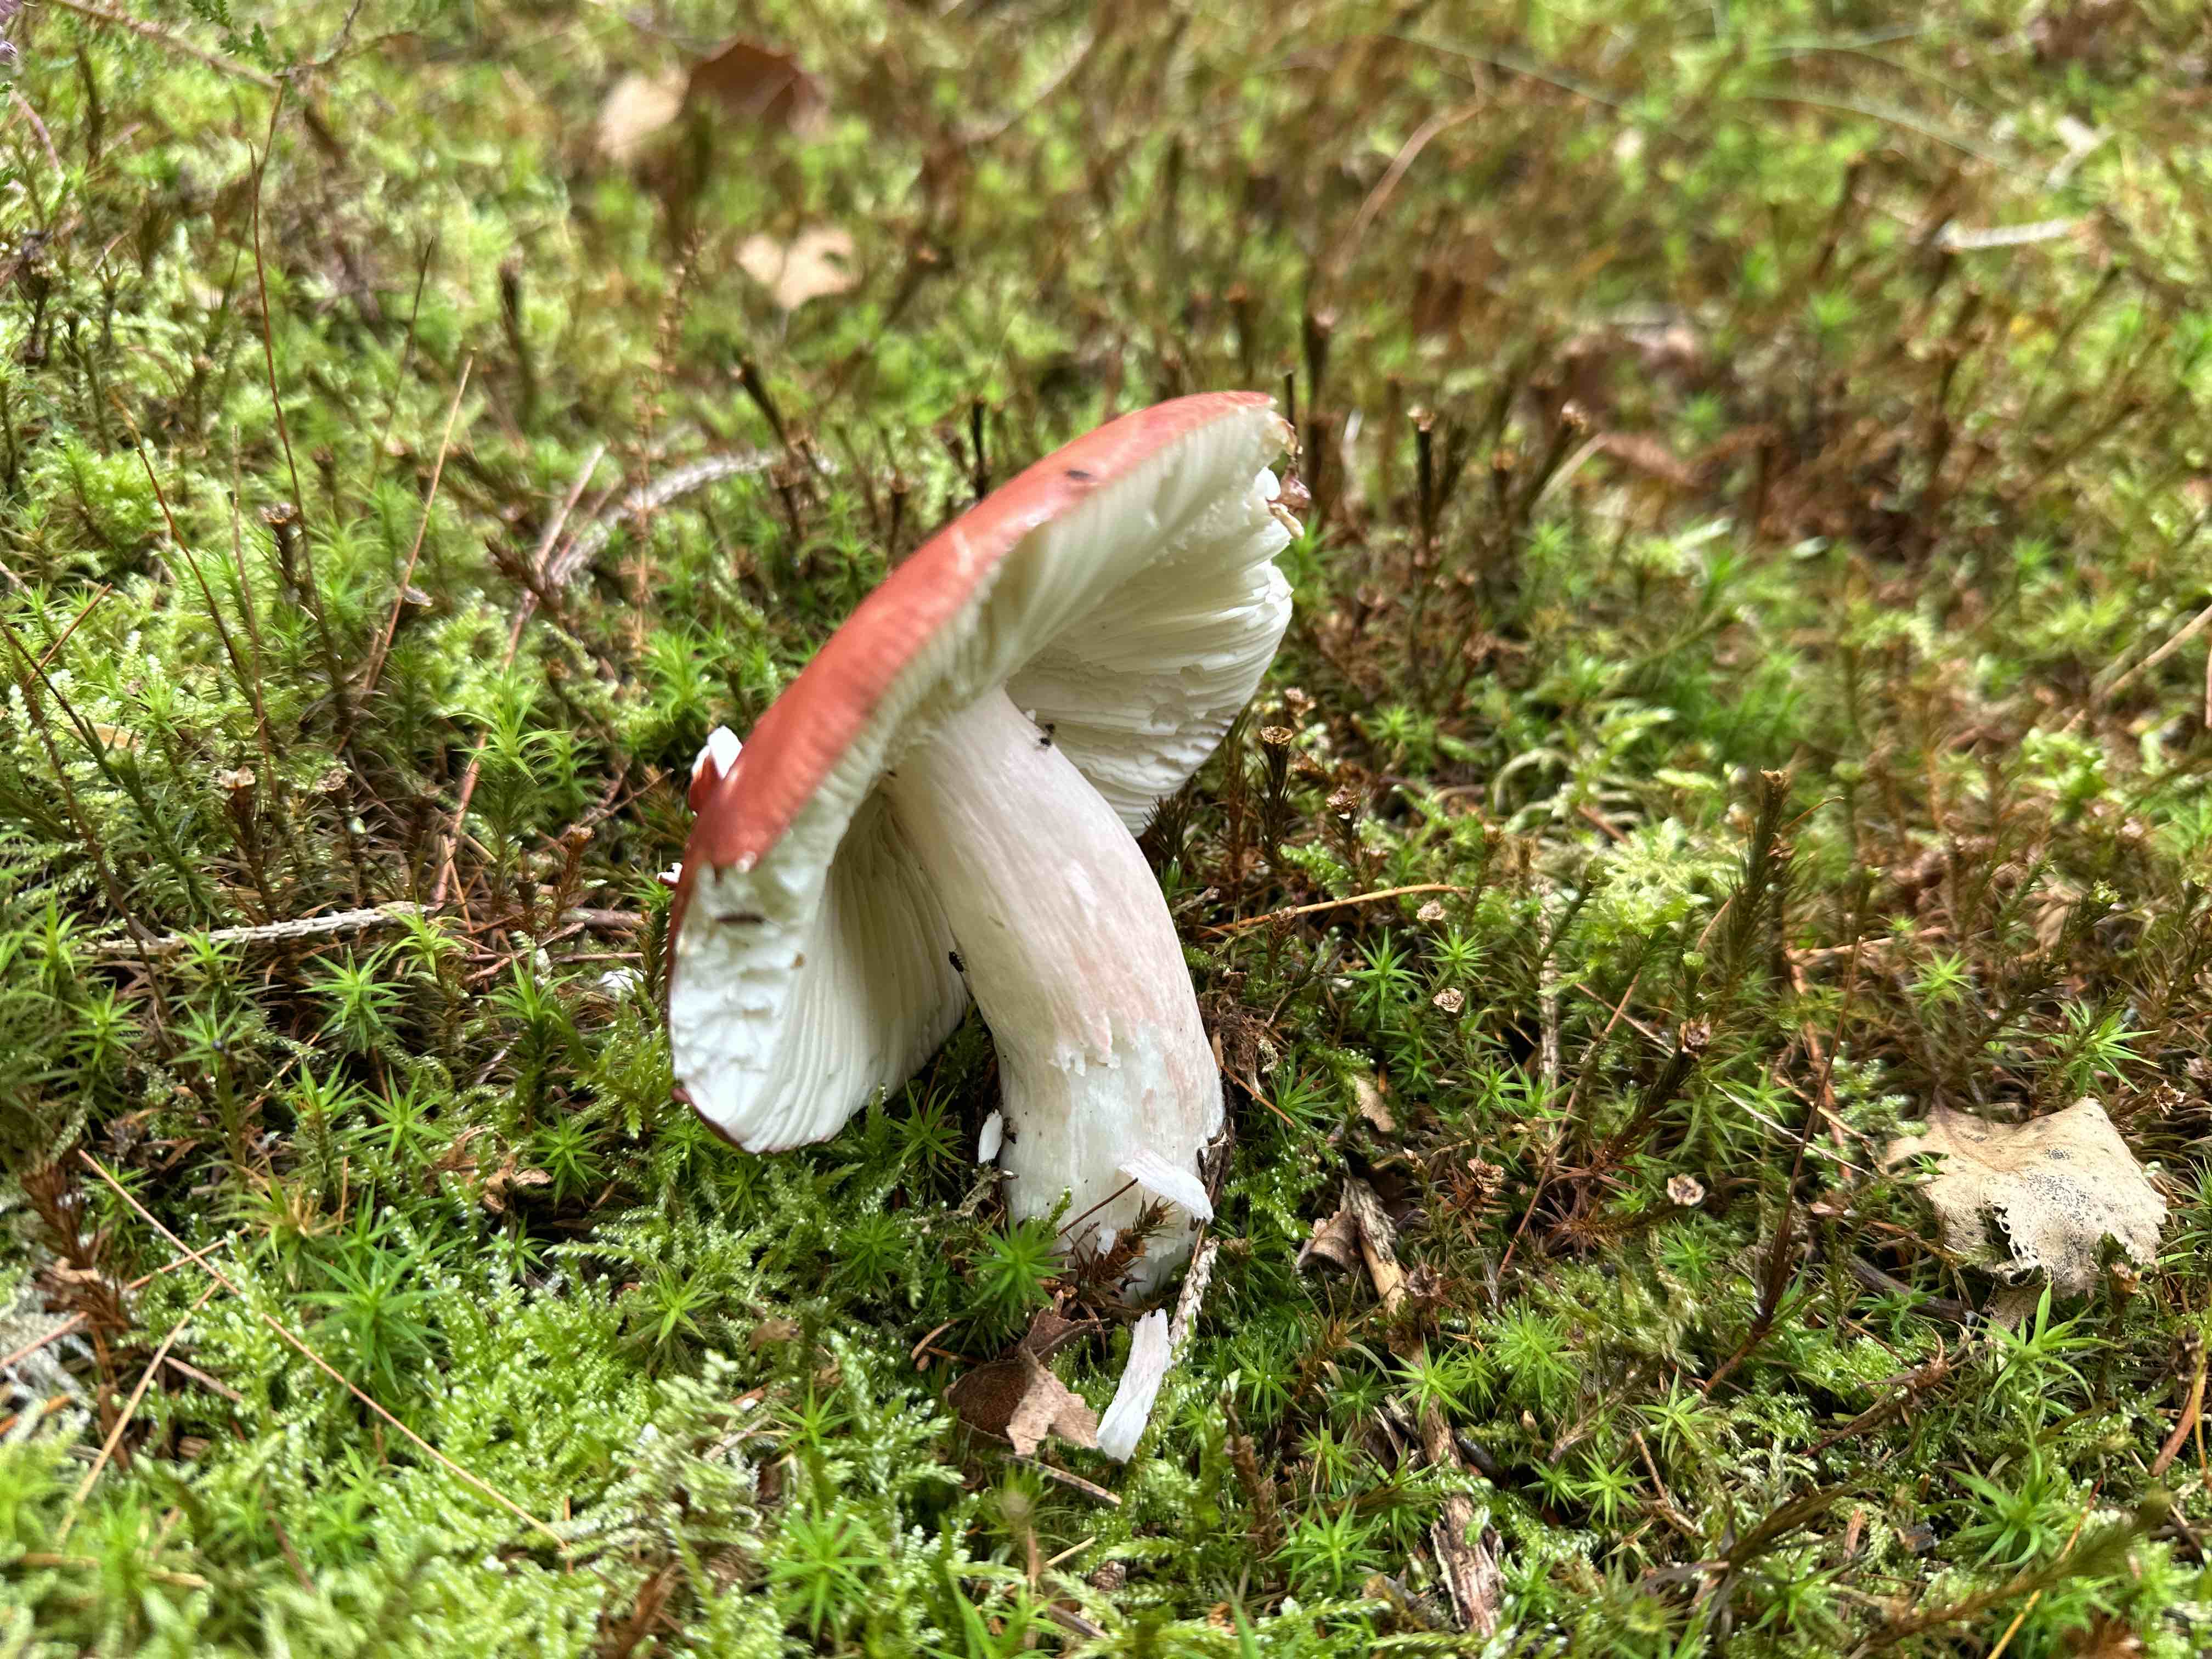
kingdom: Fungi
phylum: Basidiomycota
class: Agaricomycetes
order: Russulales
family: Russulaceae
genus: Russula
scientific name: Russula paludosa
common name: prægtig skørhat
